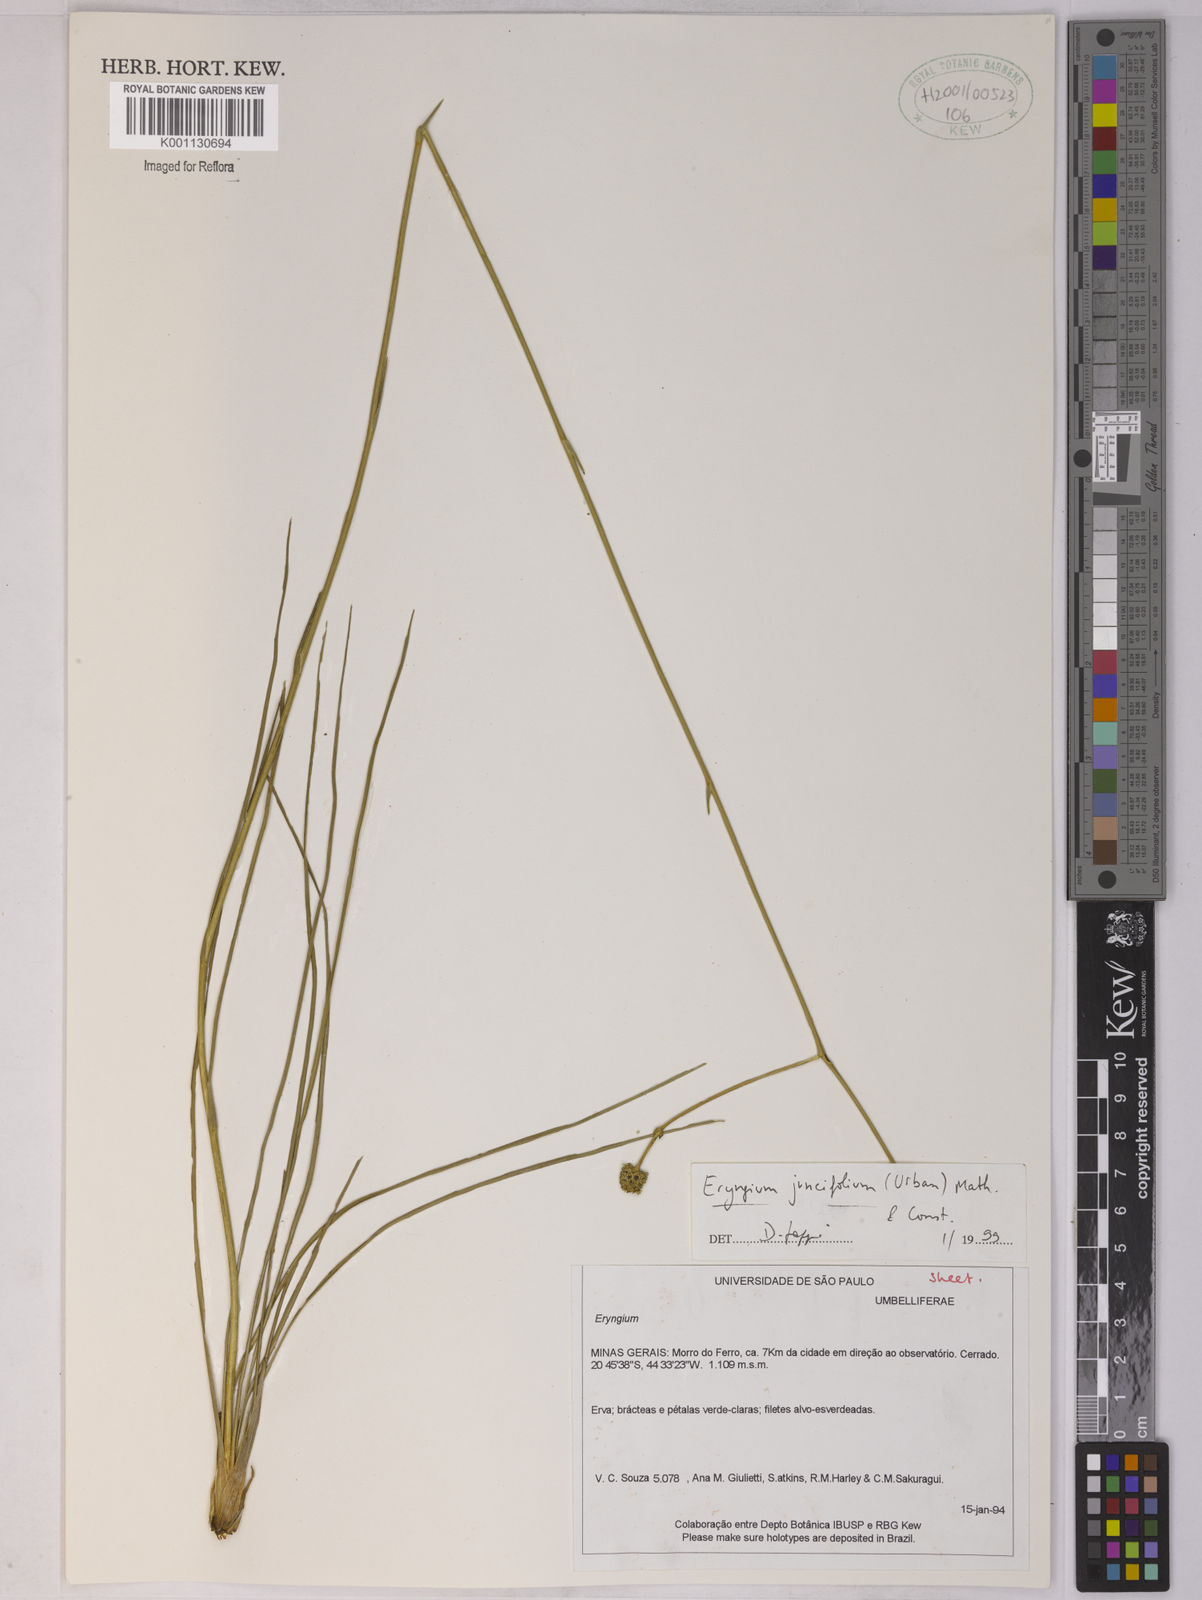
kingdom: Plantae
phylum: Tracheophyta
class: Magnoliopsida
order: Apiales
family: Apiaceae
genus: Eryngium
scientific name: Eryngium juncifolium
